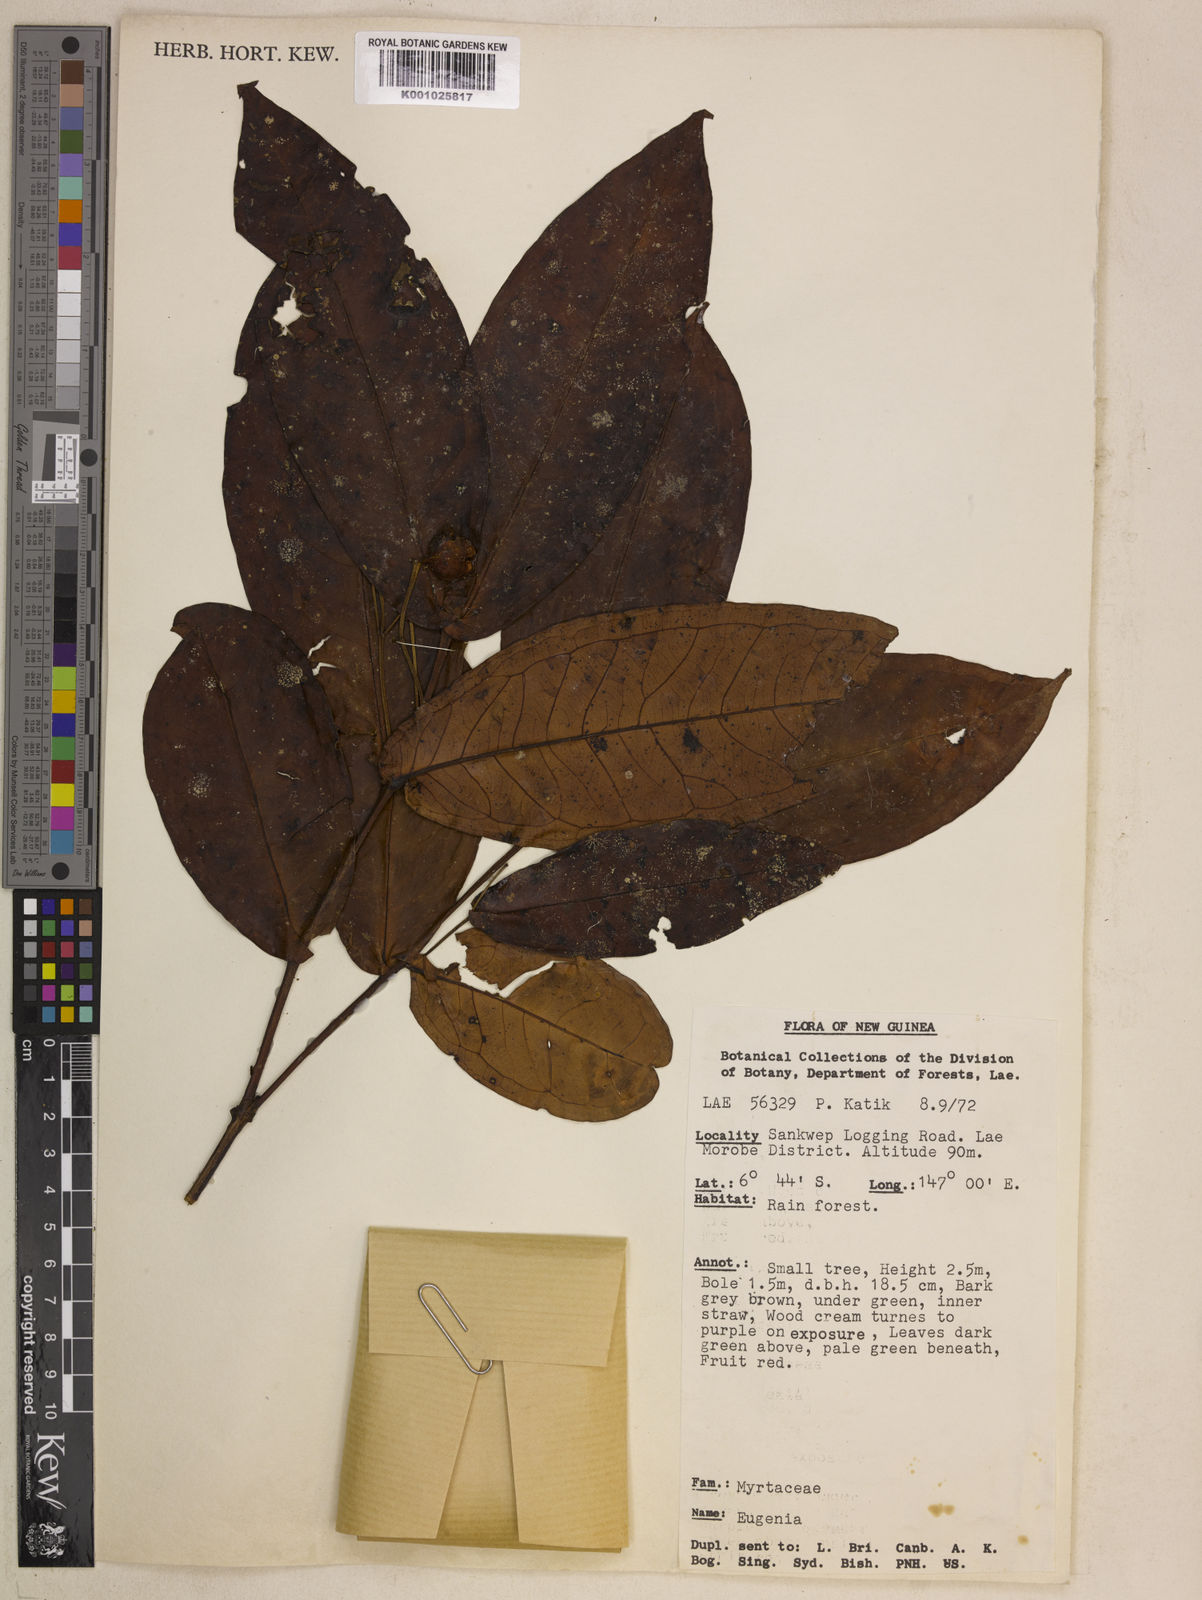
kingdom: Plantae
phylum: Tracheophyta
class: Magnoliopsida
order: Myrtales
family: Myrtaceae
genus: Syzygium
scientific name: Syzygium callianthum
